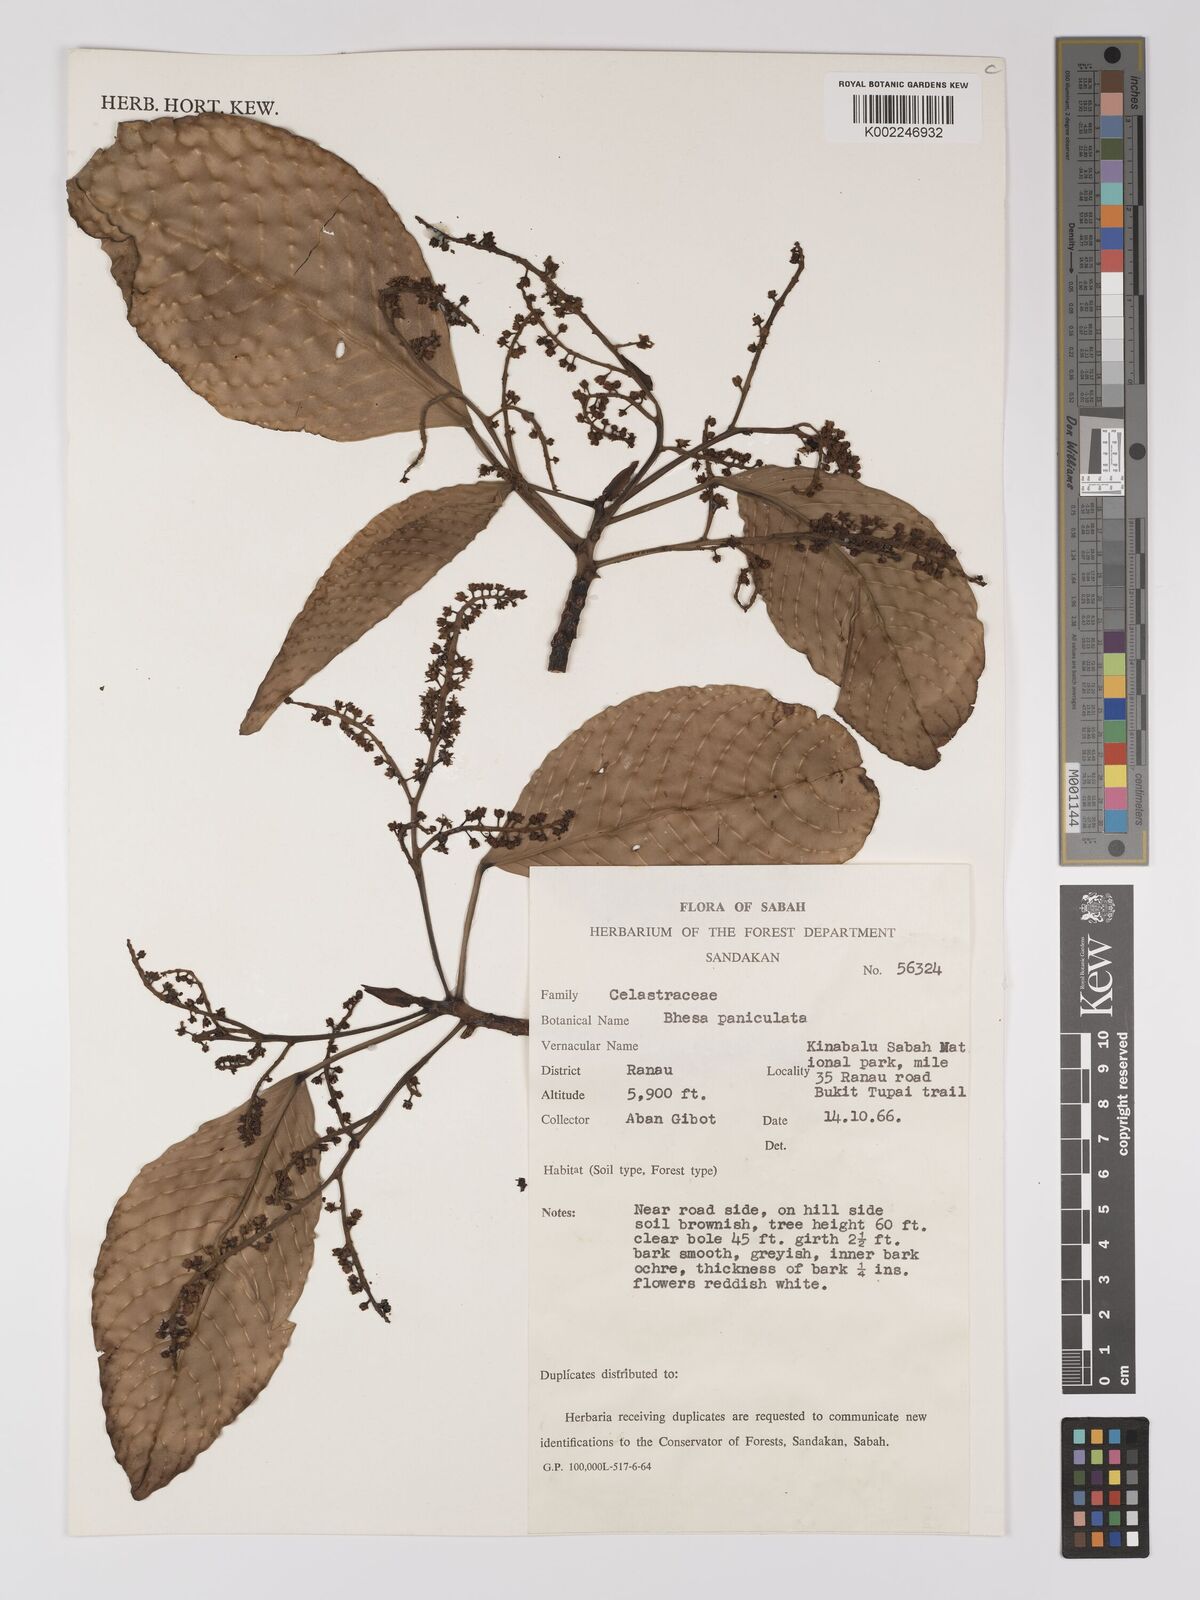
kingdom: Plantae
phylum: Tracheophyta
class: Magnoliopsida
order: Malpighiales
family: Centroplacaceae
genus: Bhesa
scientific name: Bhesa paniculata
